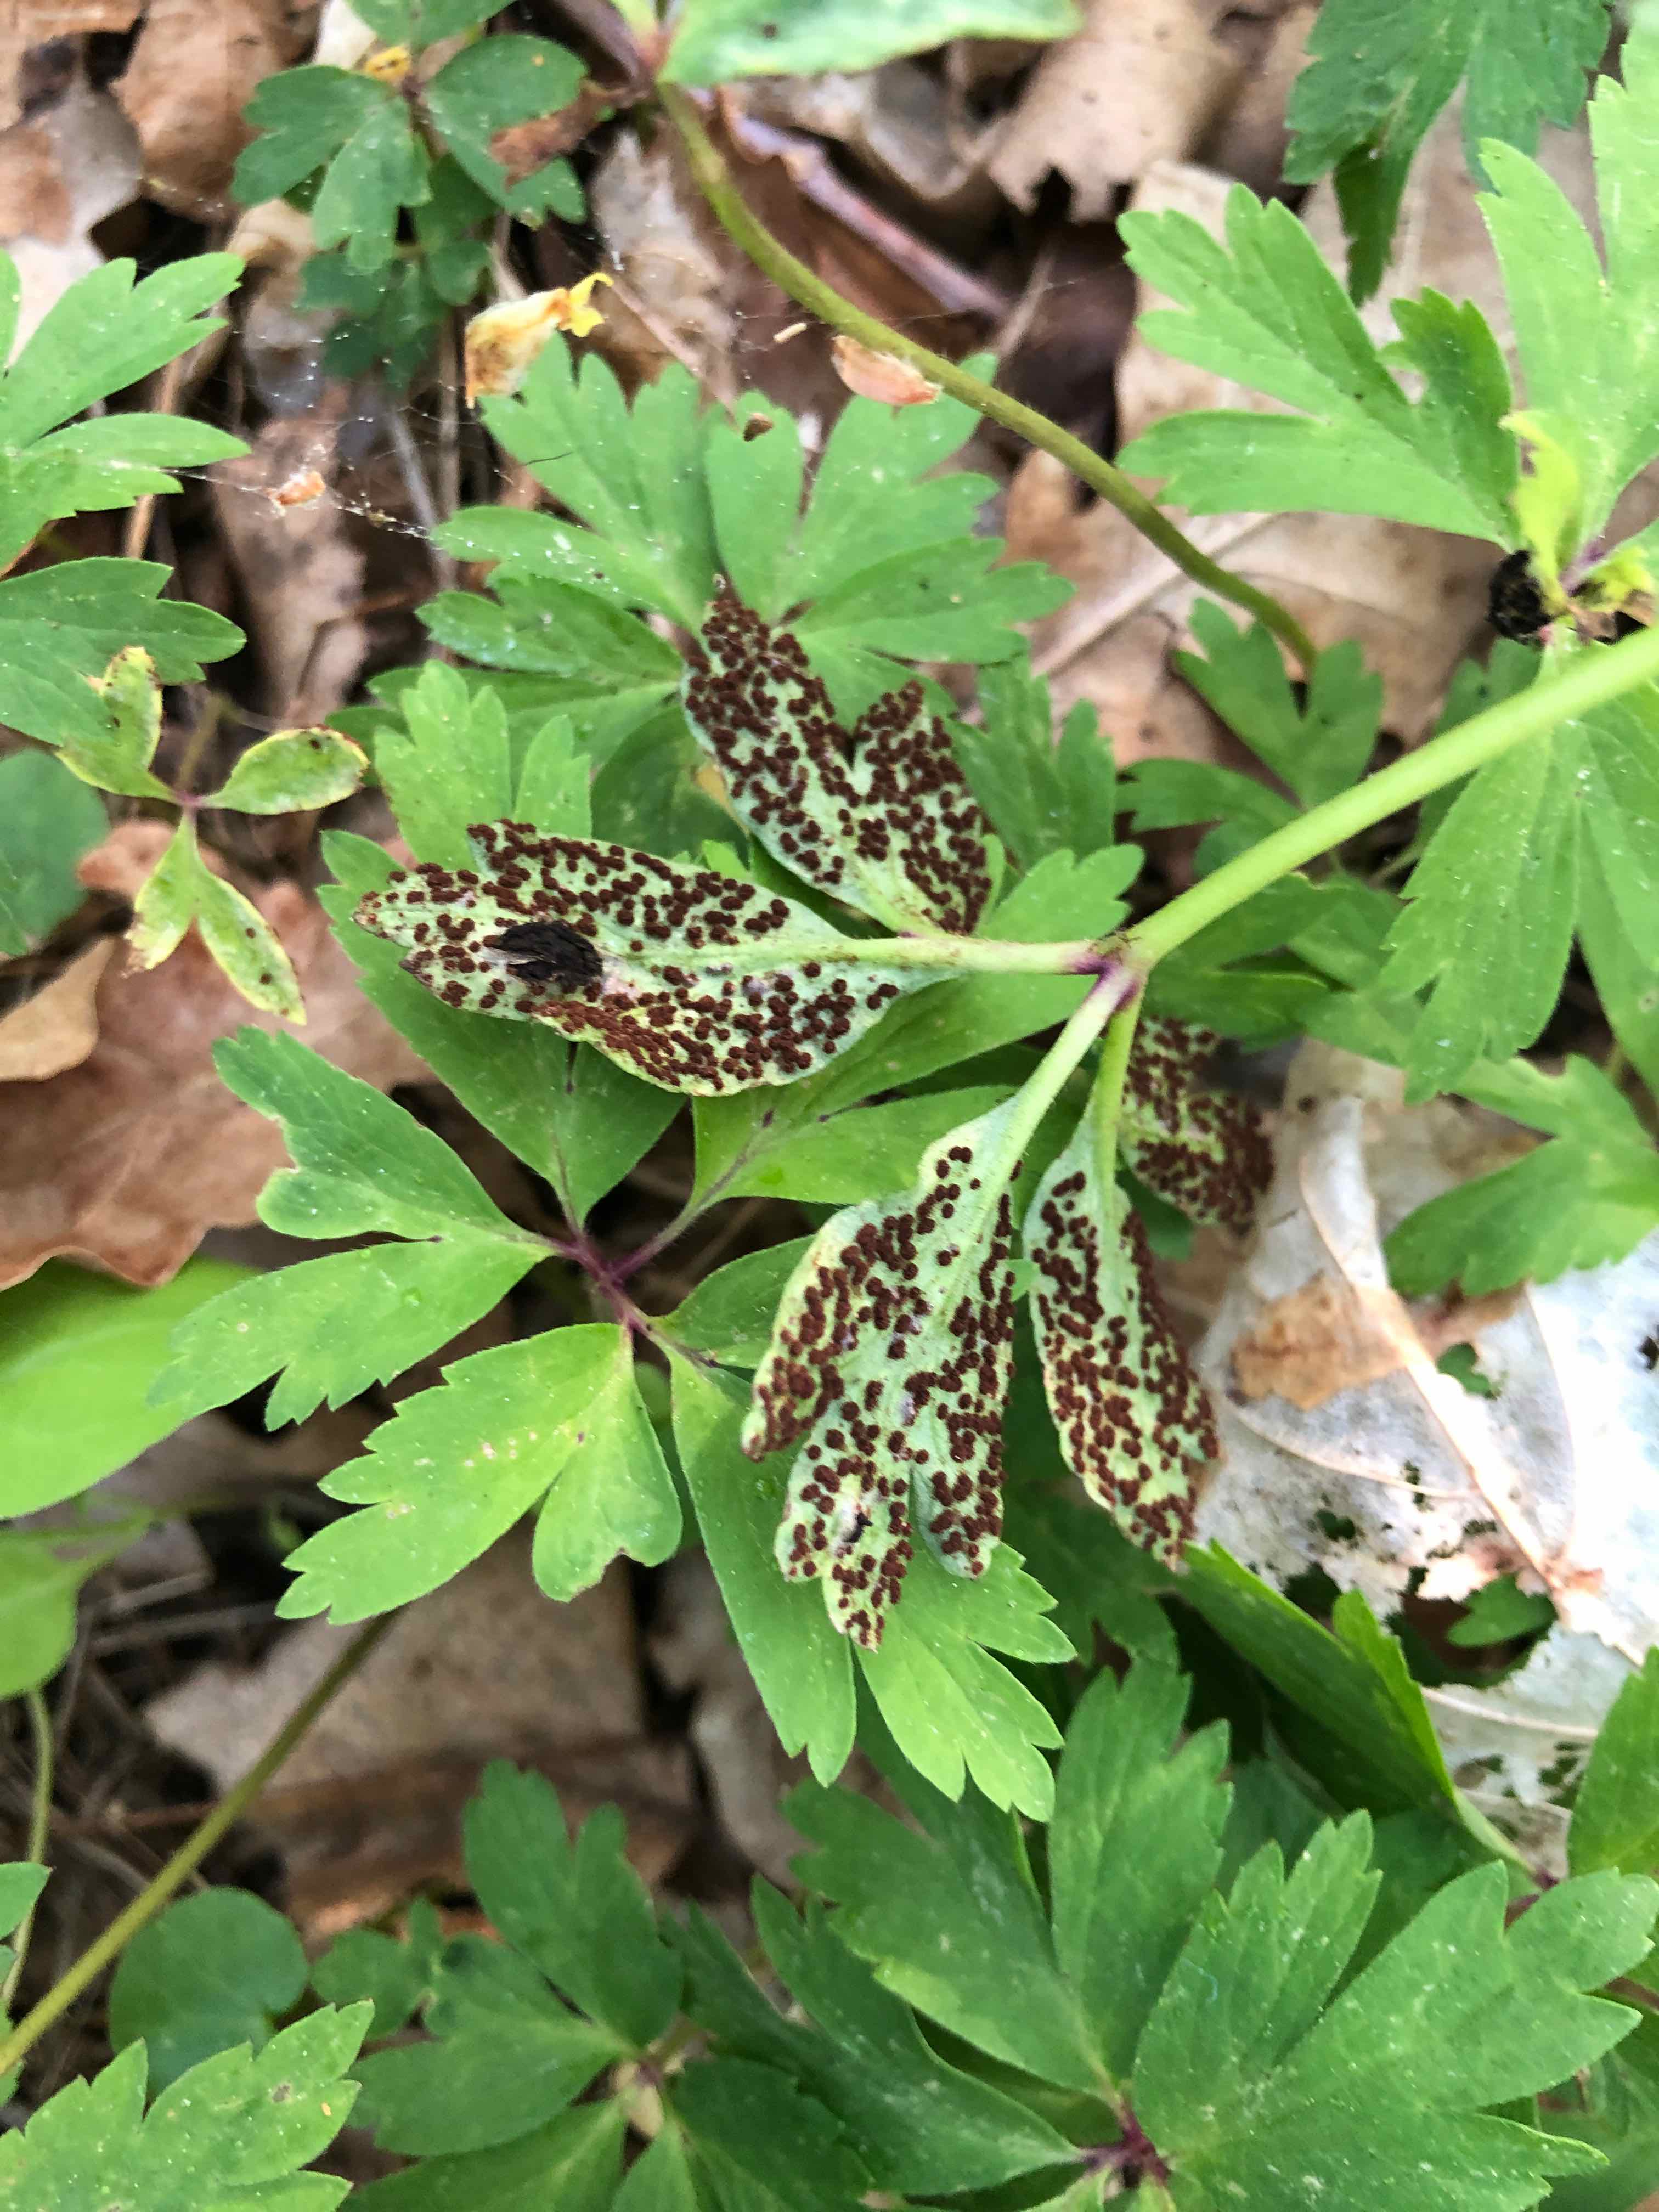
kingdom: Fungi
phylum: Basidiomycota
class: Pucciniomycetes
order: Pucciniales
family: Tranzscheliaceae
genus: Tranzschelia
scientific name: Tranzschelia anemones
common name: anemone-knæksporerust
